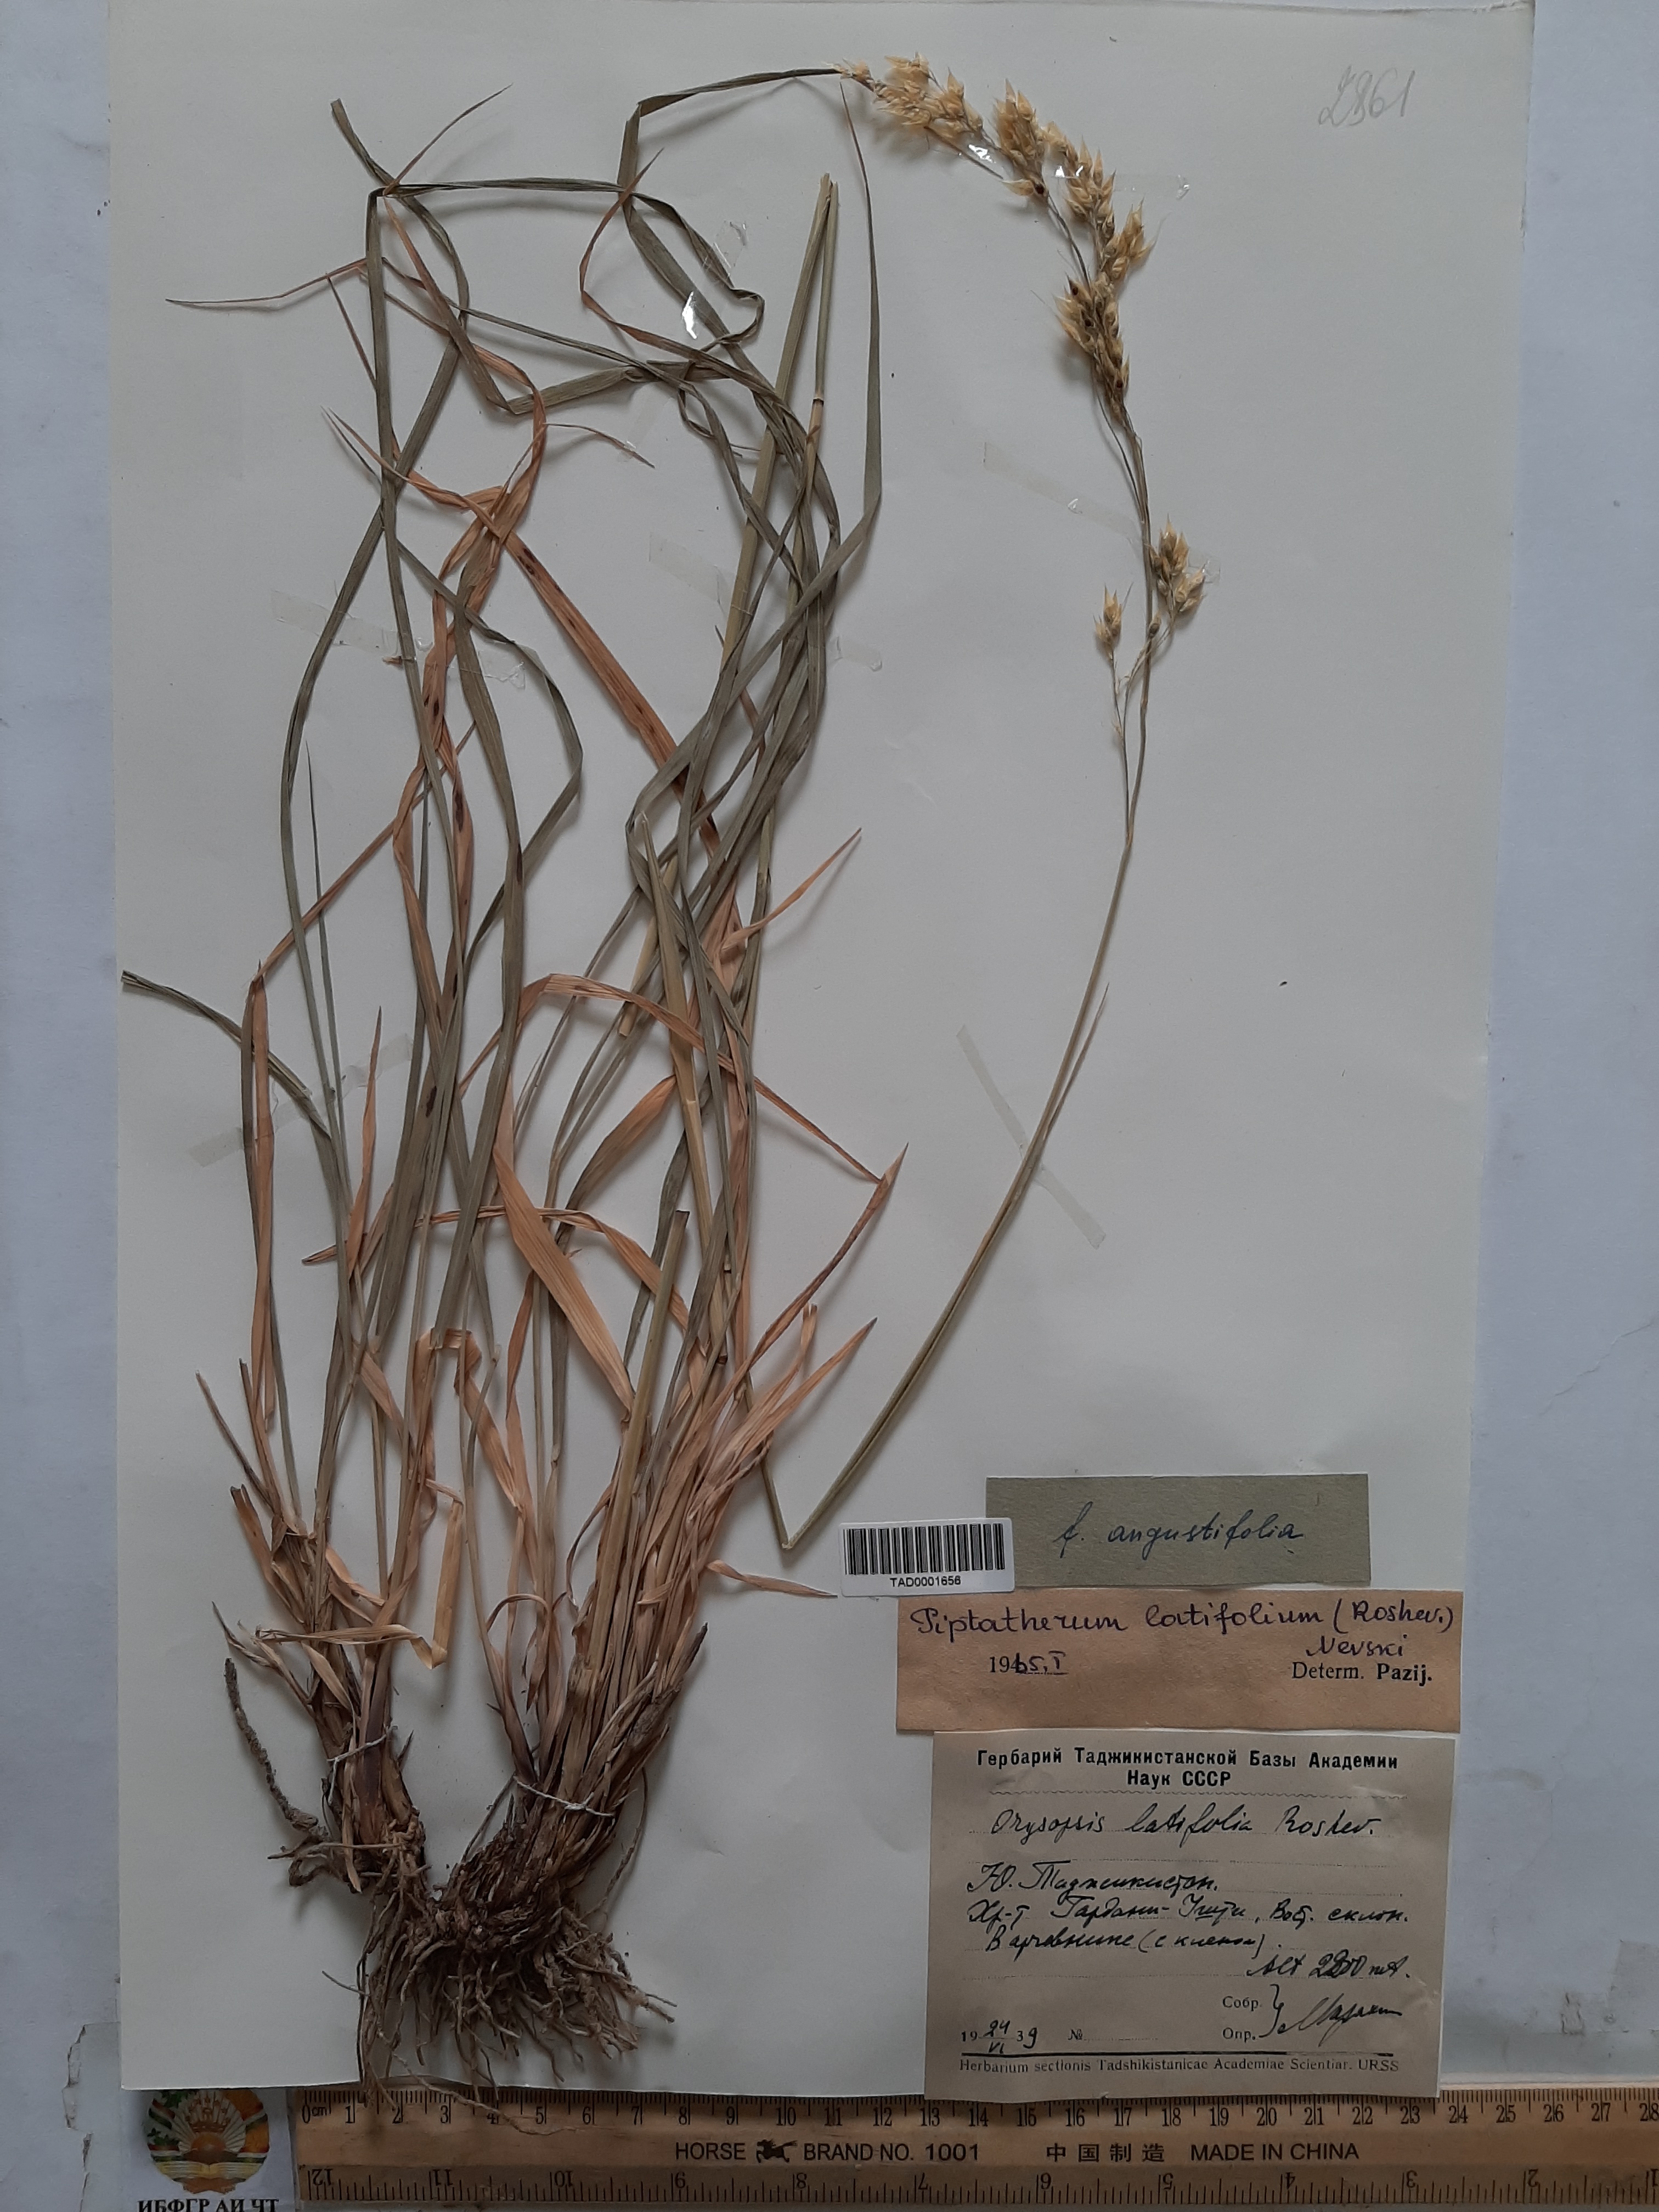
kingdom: Plantae
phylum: Tracheophyta
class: Liliopsida
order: Poales
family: Poaceae
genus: Piptatherum
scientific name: Piptatherum latifolium
